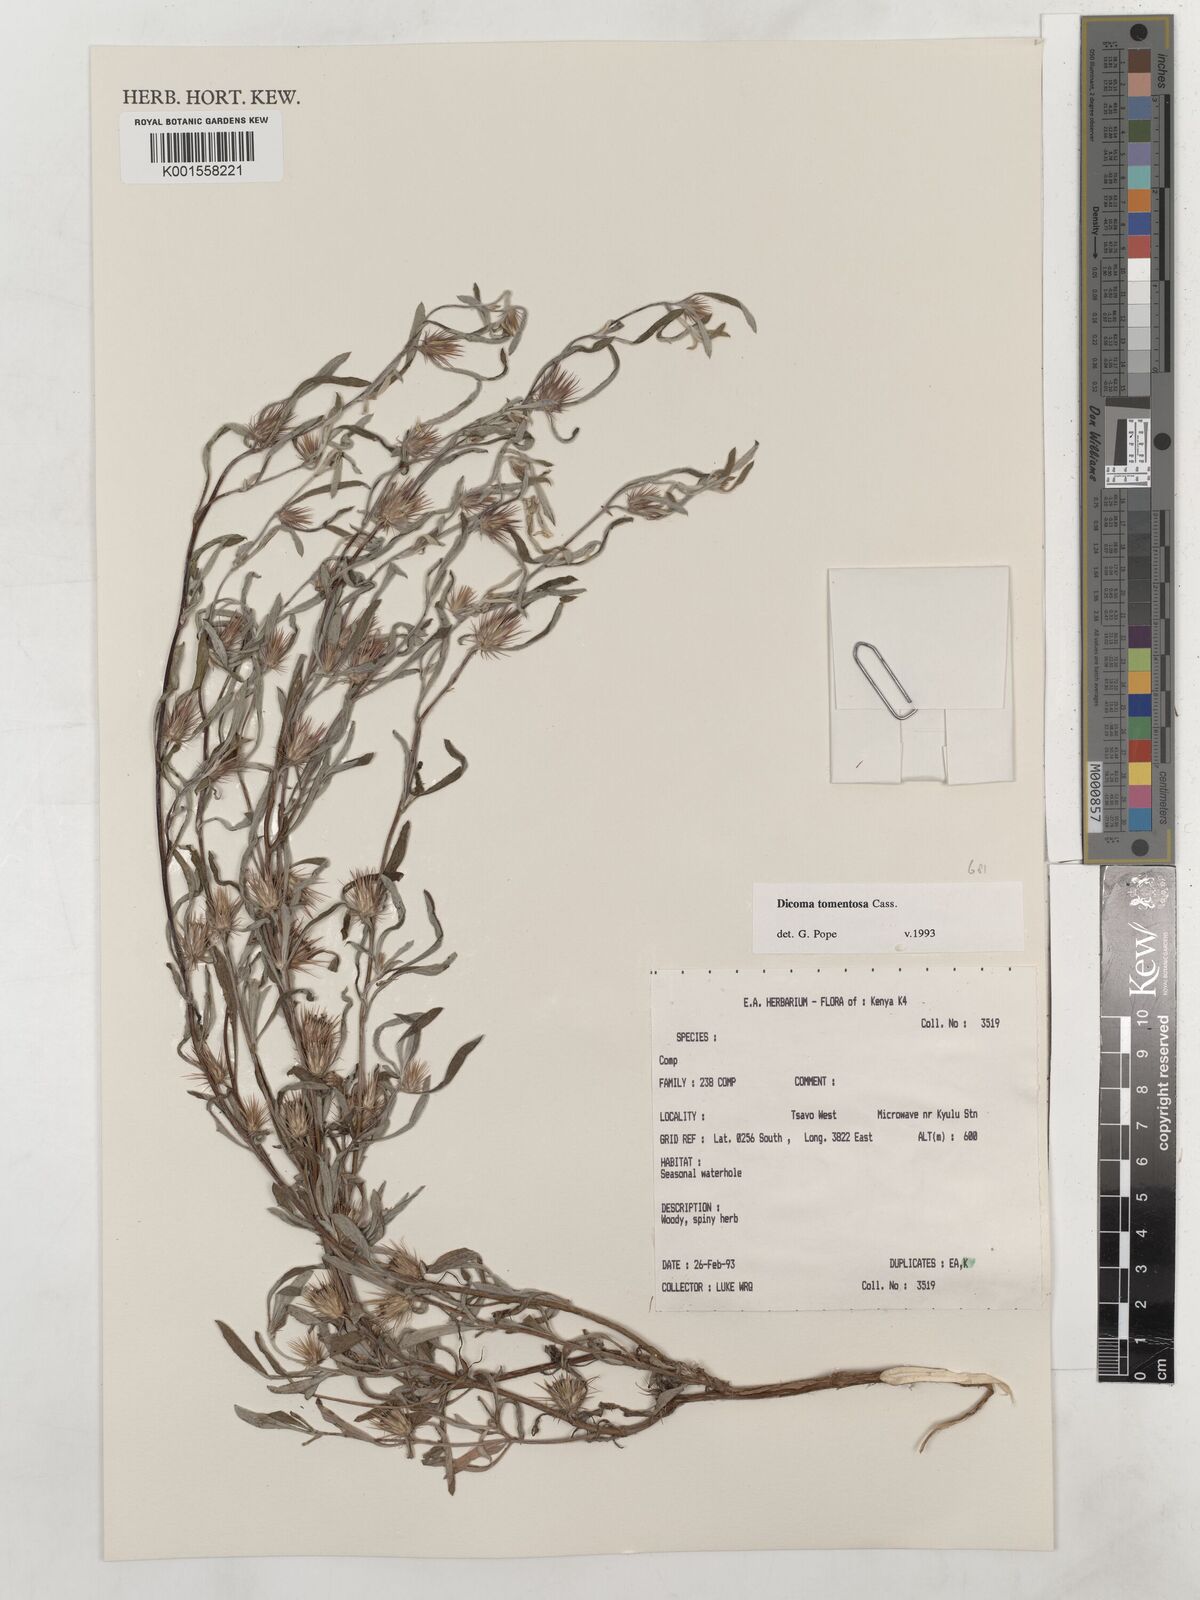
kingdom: Plantae
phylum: Tracheophyta
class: Magnoliopsida
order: Asterales
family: Asteraceae
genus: Dicoma
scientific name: Dicoma tomentosa
